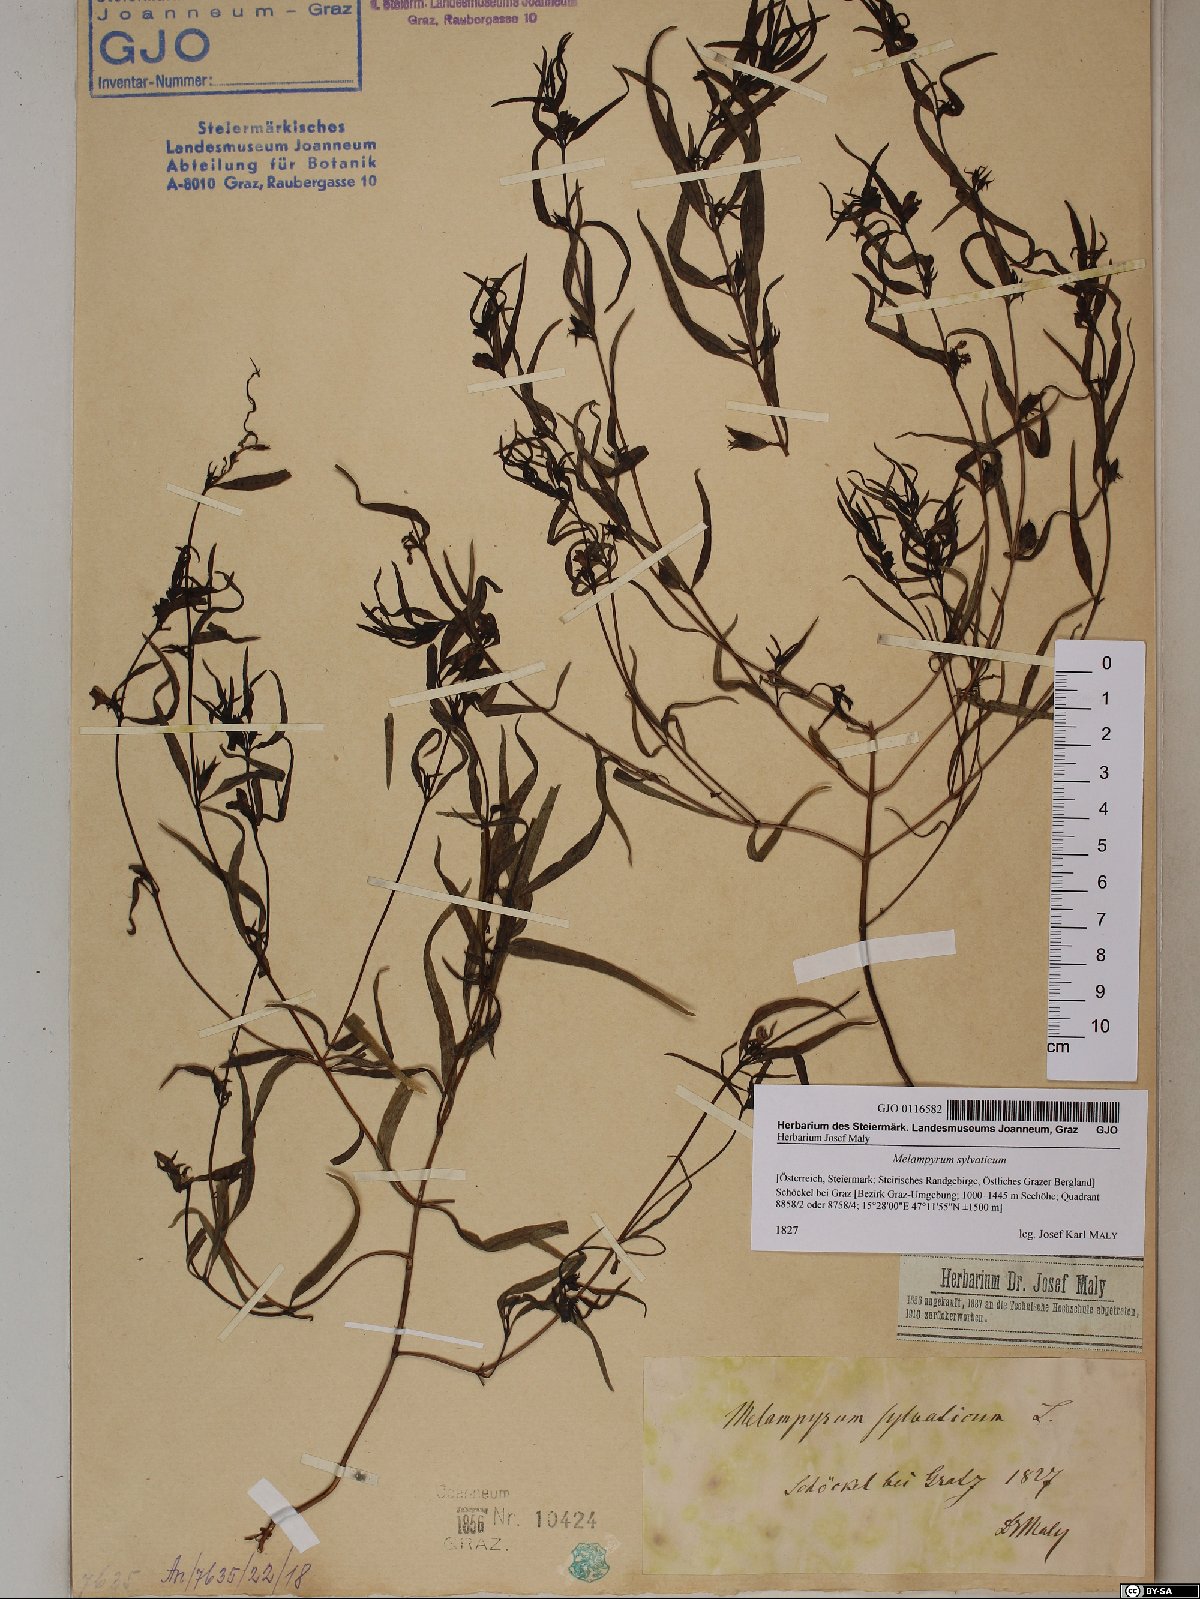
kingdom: Plantae
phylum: Tracheophyta
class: Magnoliopsida
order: Lamiales
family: Orobanchaceae
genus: Melampyrum
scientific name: Melampyrum sylvaticum
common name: Small cow-wheat
